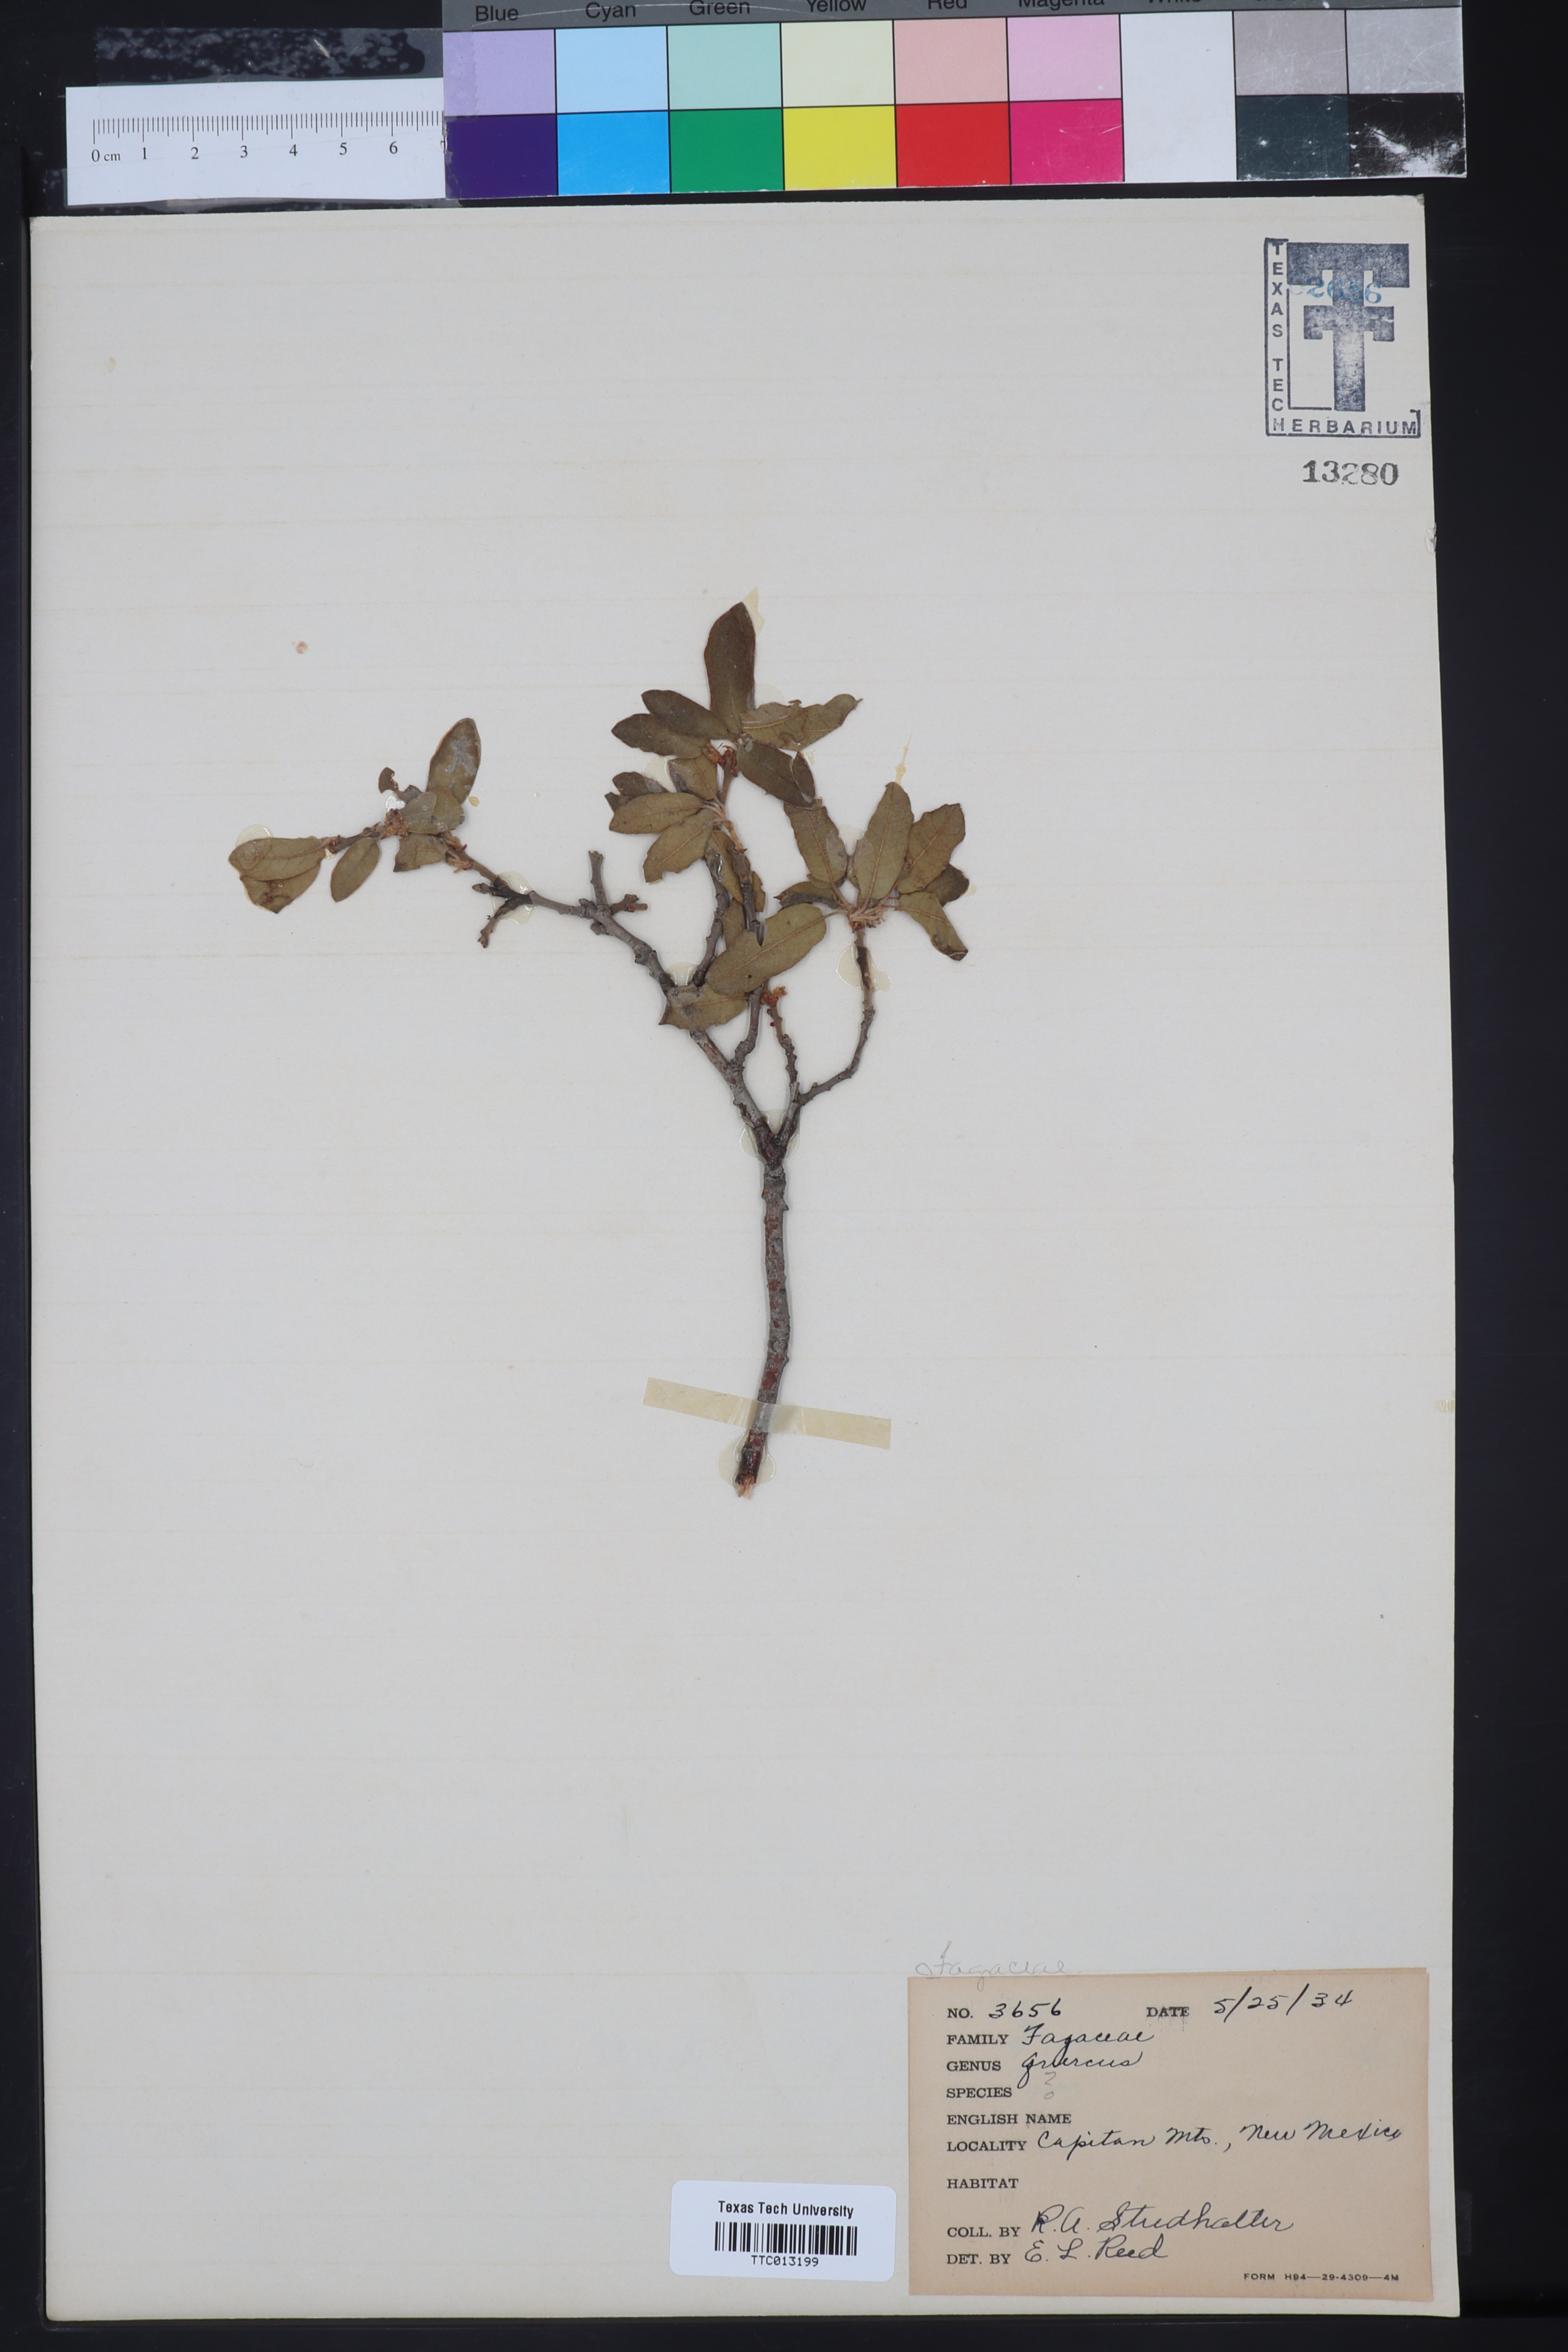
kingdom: Plantae
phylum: Tracheophyta
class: Magnoliopsida
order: Fagales
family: Fagaceae
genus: Quercus
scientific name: Quercus
